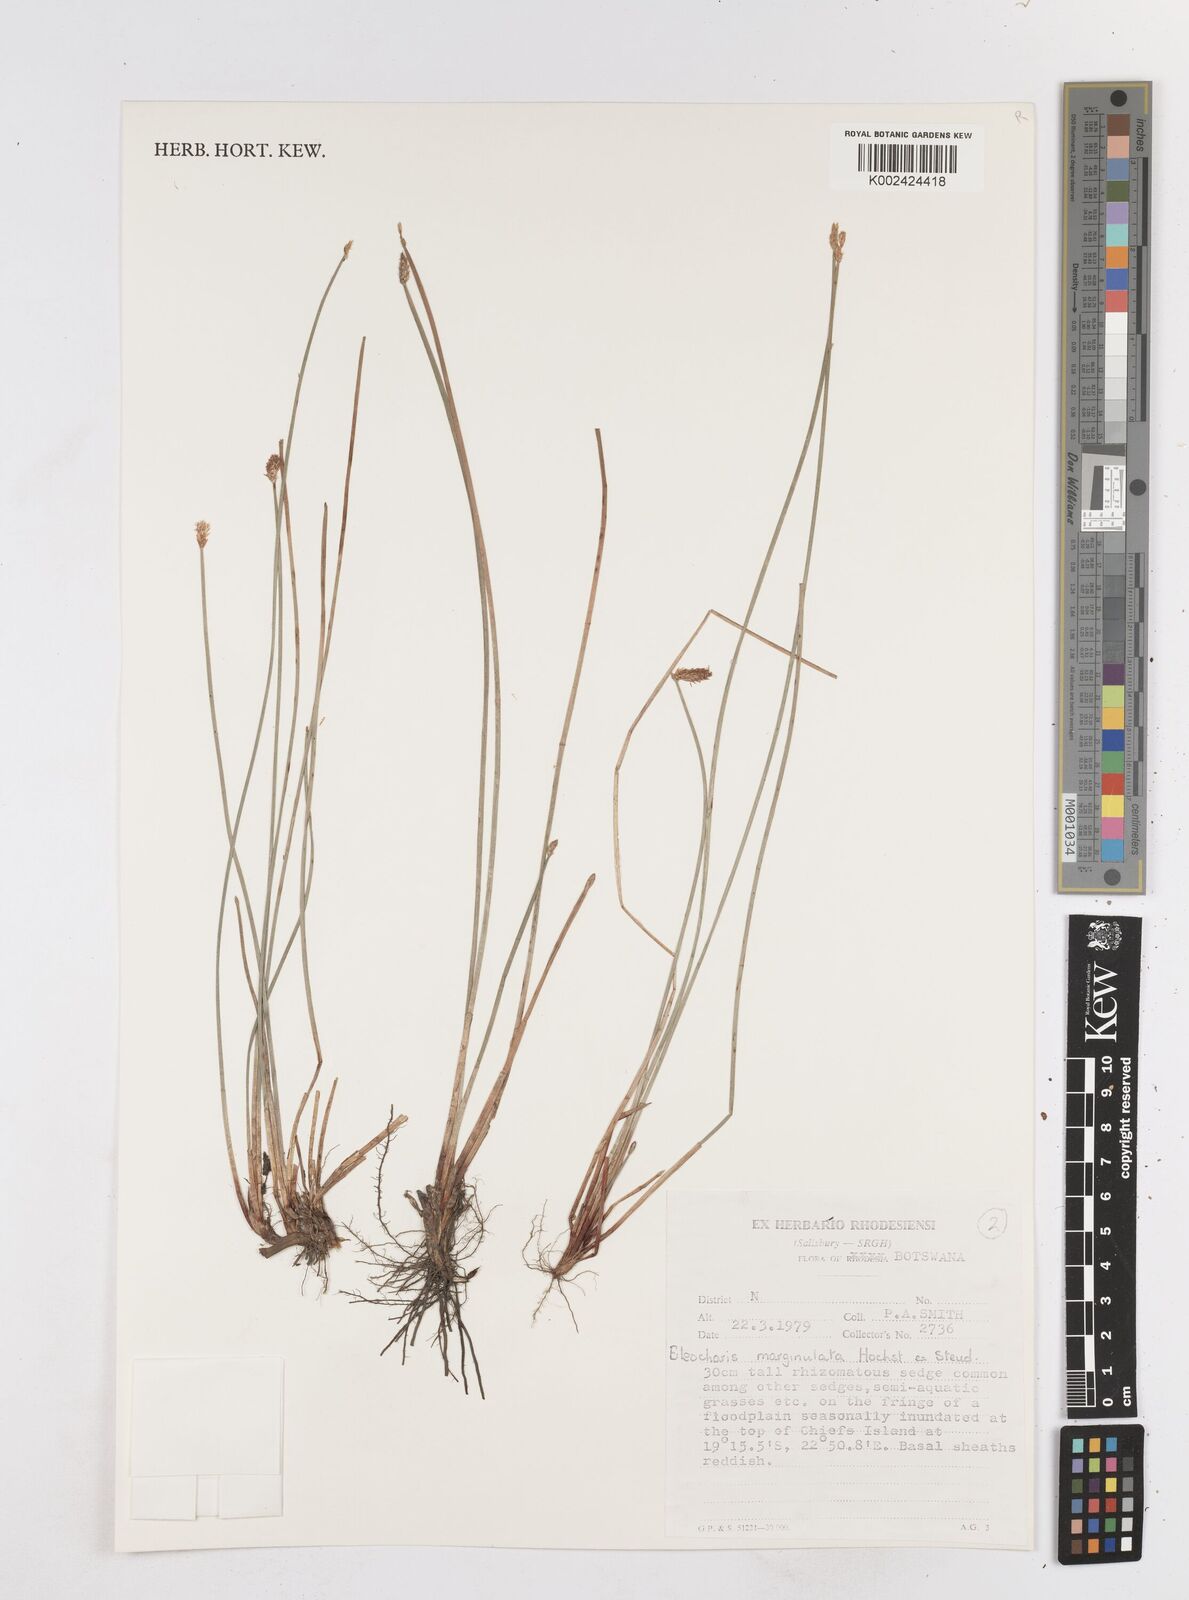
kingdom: Plantae
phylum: Tracheophyta
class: Liliopsida
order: Poales
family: Cyperaceae
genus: Eleocharis
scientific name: Eleocharis marginulata
